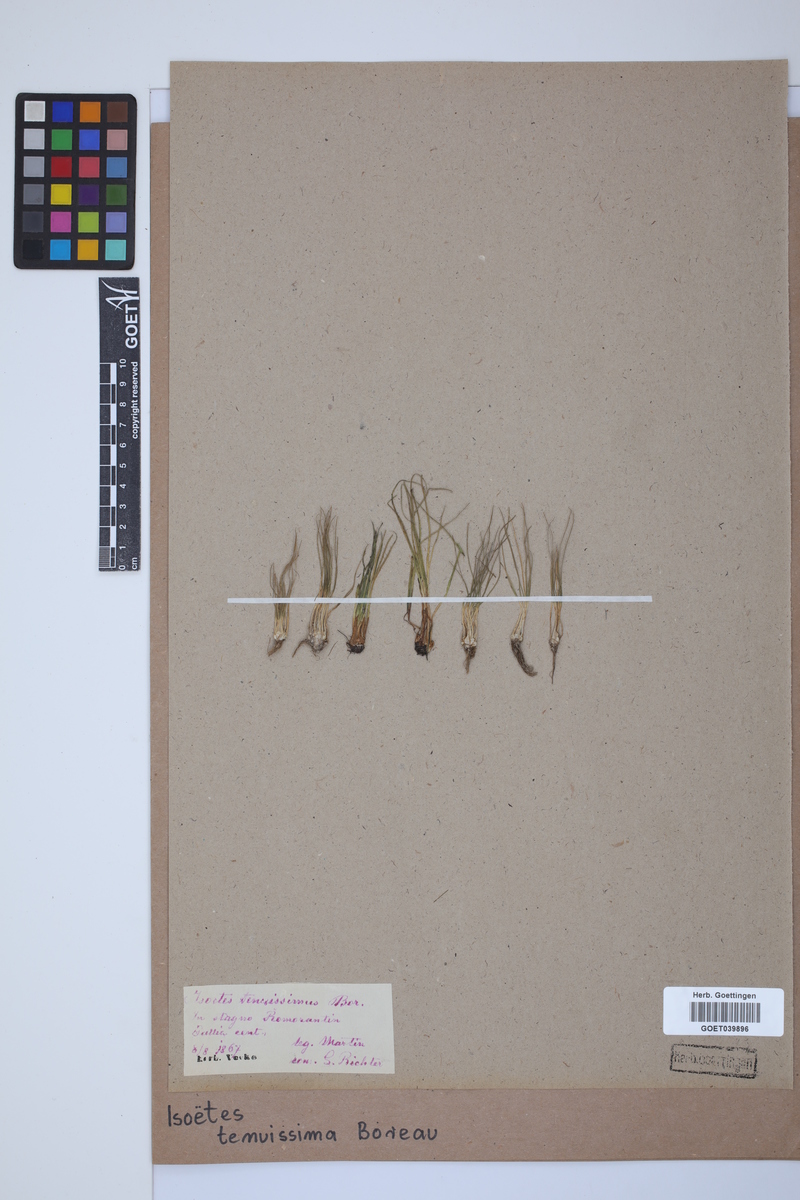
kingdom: Plantae
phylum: Tracheophyta
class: Lycopodiopsida
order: Isoetales
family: Isoetaceae
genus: Isoetes
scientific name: Isoetes muelleri
